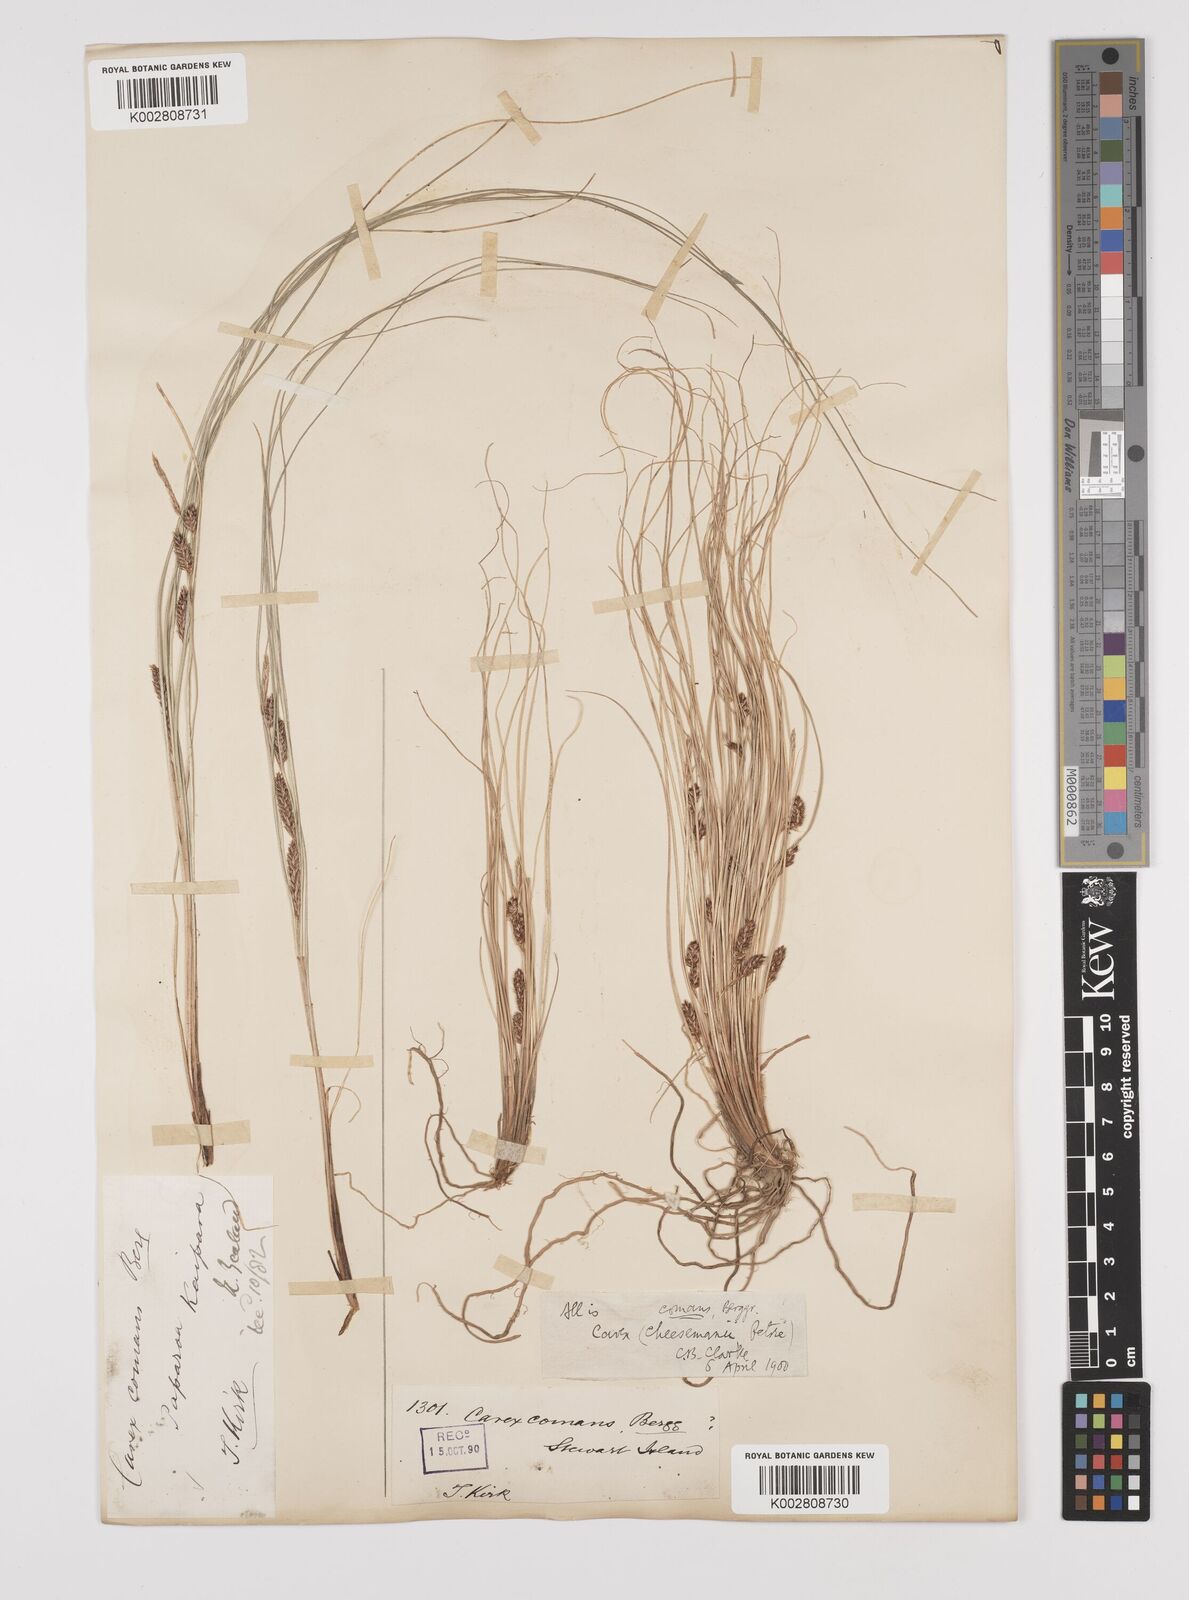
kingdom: Plantae
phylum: Tracheophyta
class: Liliopsida
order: Poales
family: Cyperaceae
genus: Carex
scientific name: Carex comans
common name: Longwood tussock
